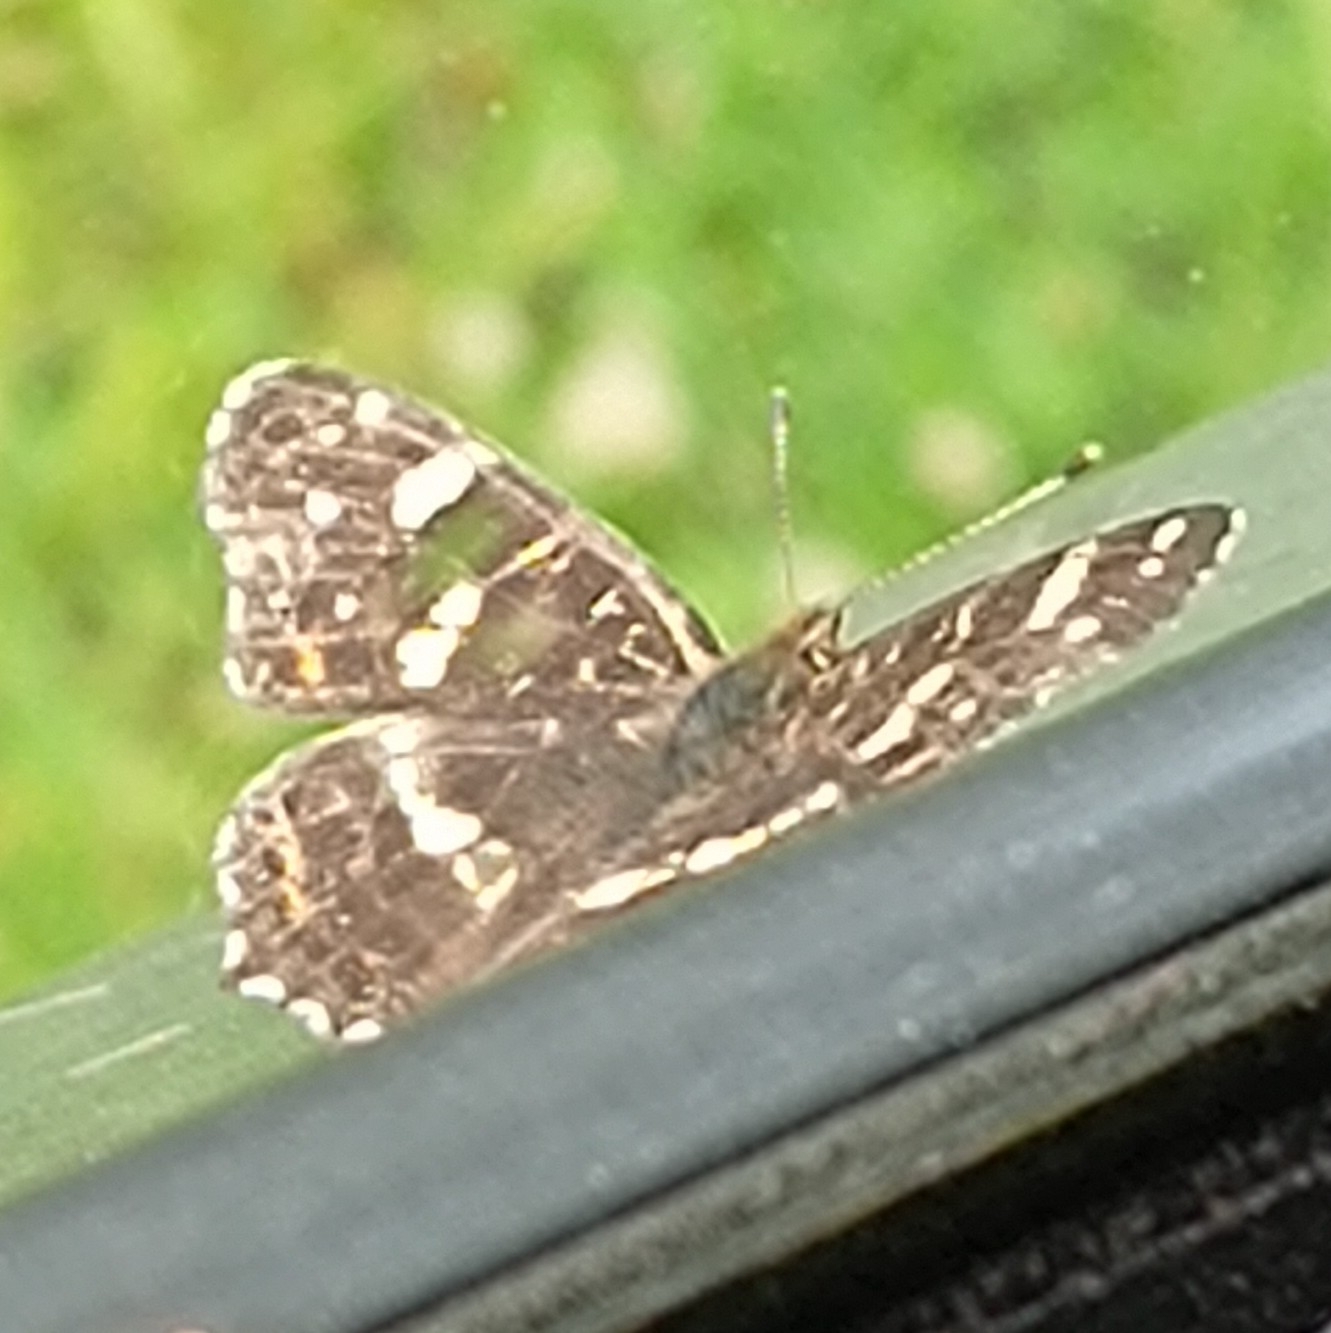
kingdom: Animalia
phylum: Arthropoda
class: Insecta
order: Lepidoptera
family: Nymphalidae
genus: Araschnia
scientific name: Araschnia levana
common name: Nældesommerfugl
